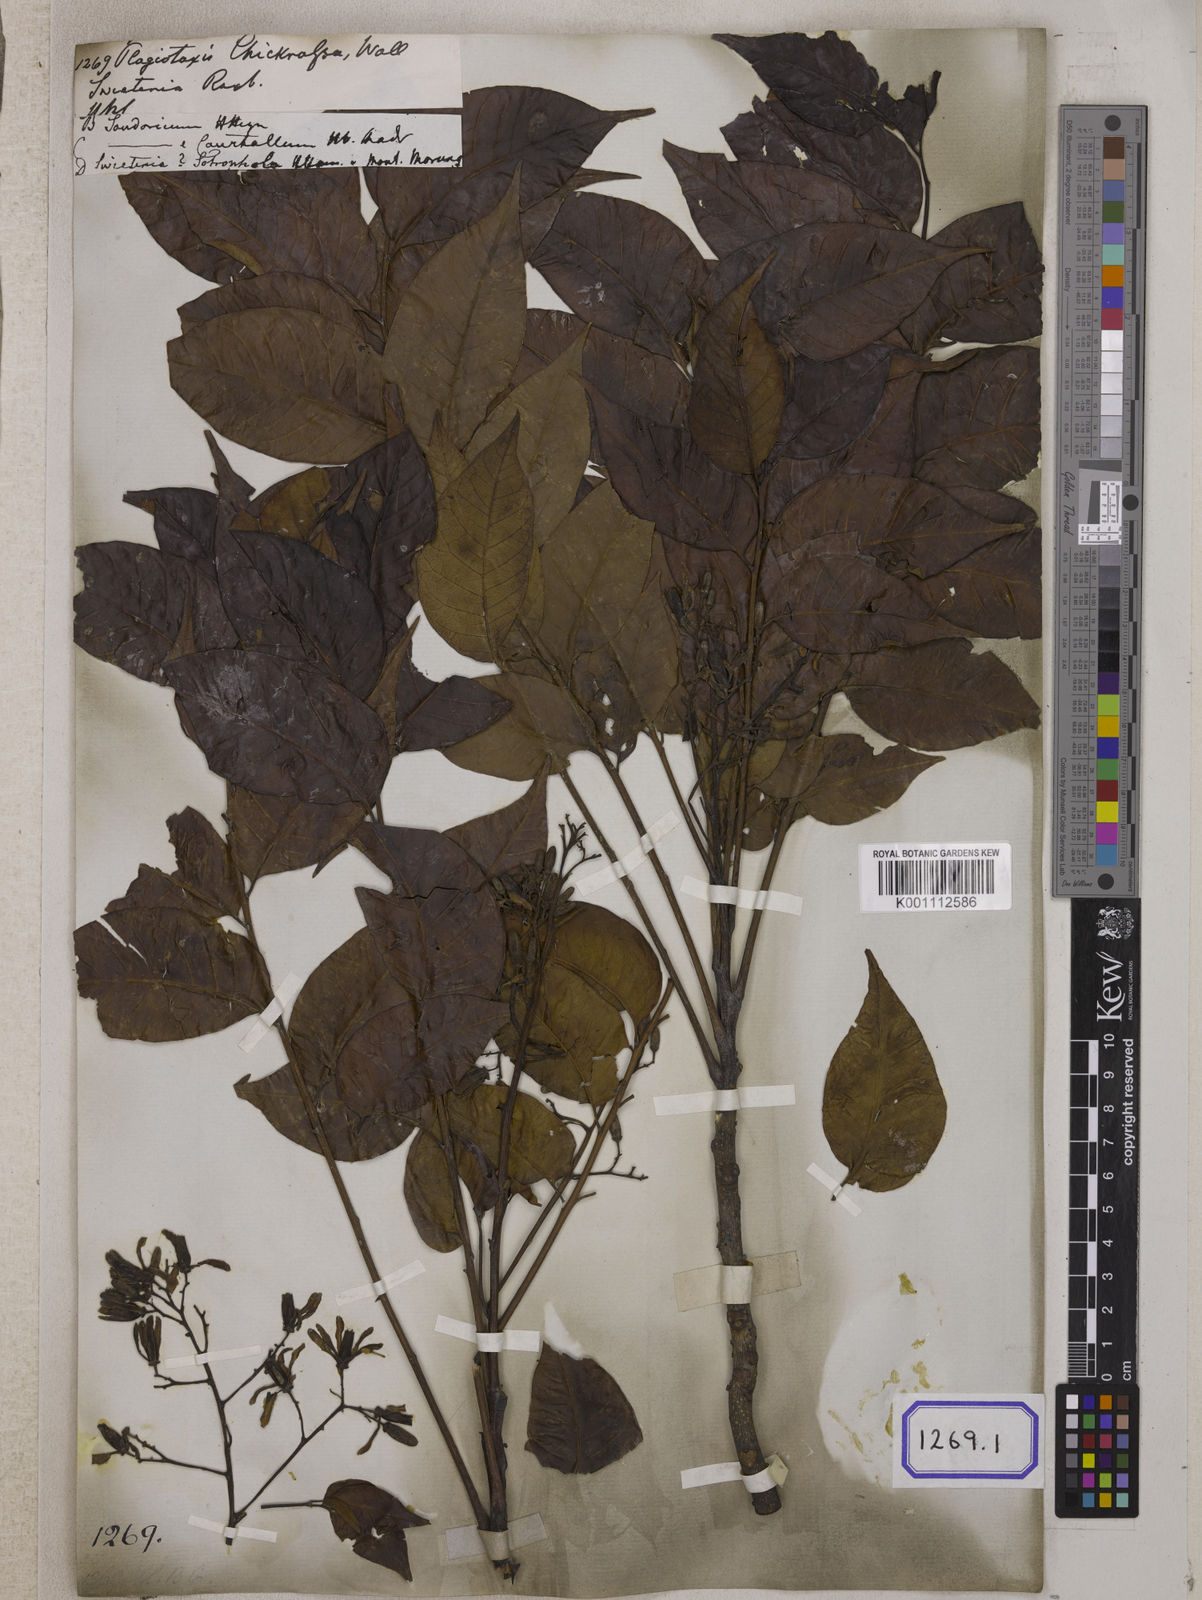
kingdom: Plantae
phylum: Tracheophyta
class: Magnoliopsida
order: Sapindales
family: Meliaceae
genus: Chukrasia
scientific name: Chukrasia tabularis
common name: Chittagong wood
